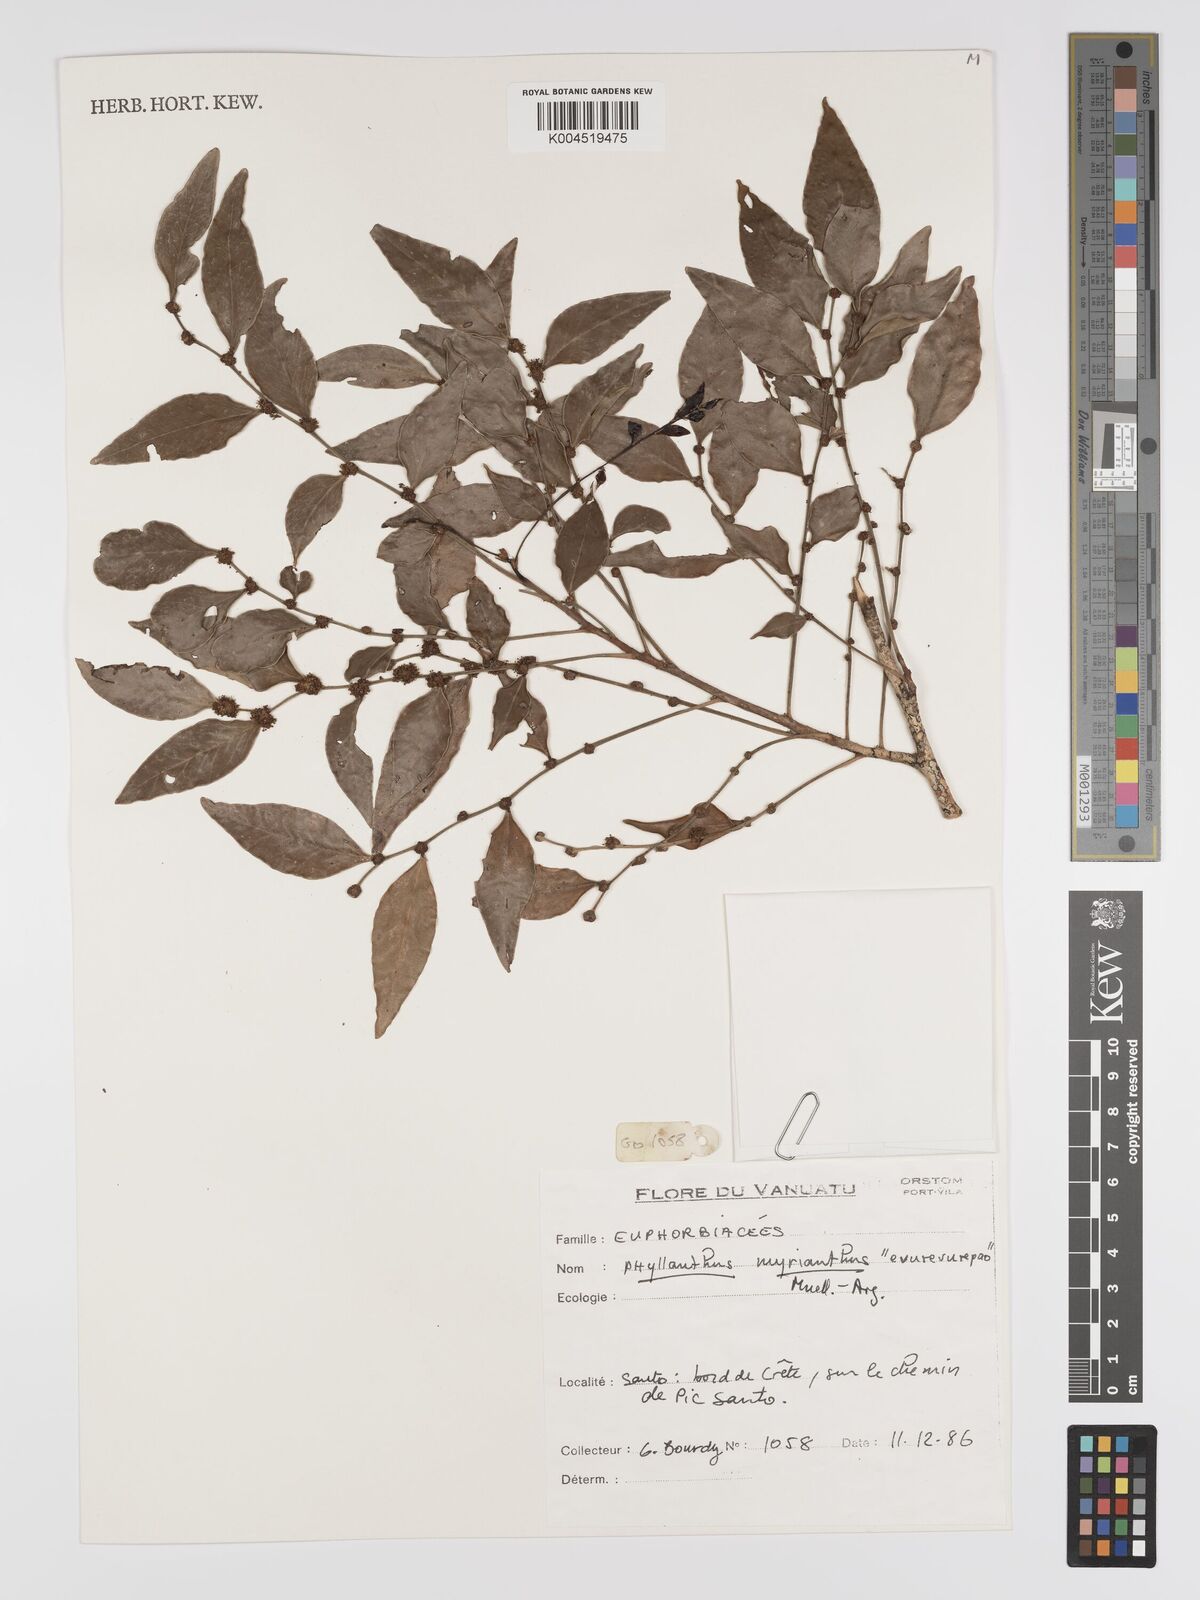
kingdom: Plantae
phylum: Tracheophyta
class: Magnoliopsida
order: Malpighiales
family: Phyllanthaceae
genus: Glochidion
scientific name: Glochidion myrianthum
